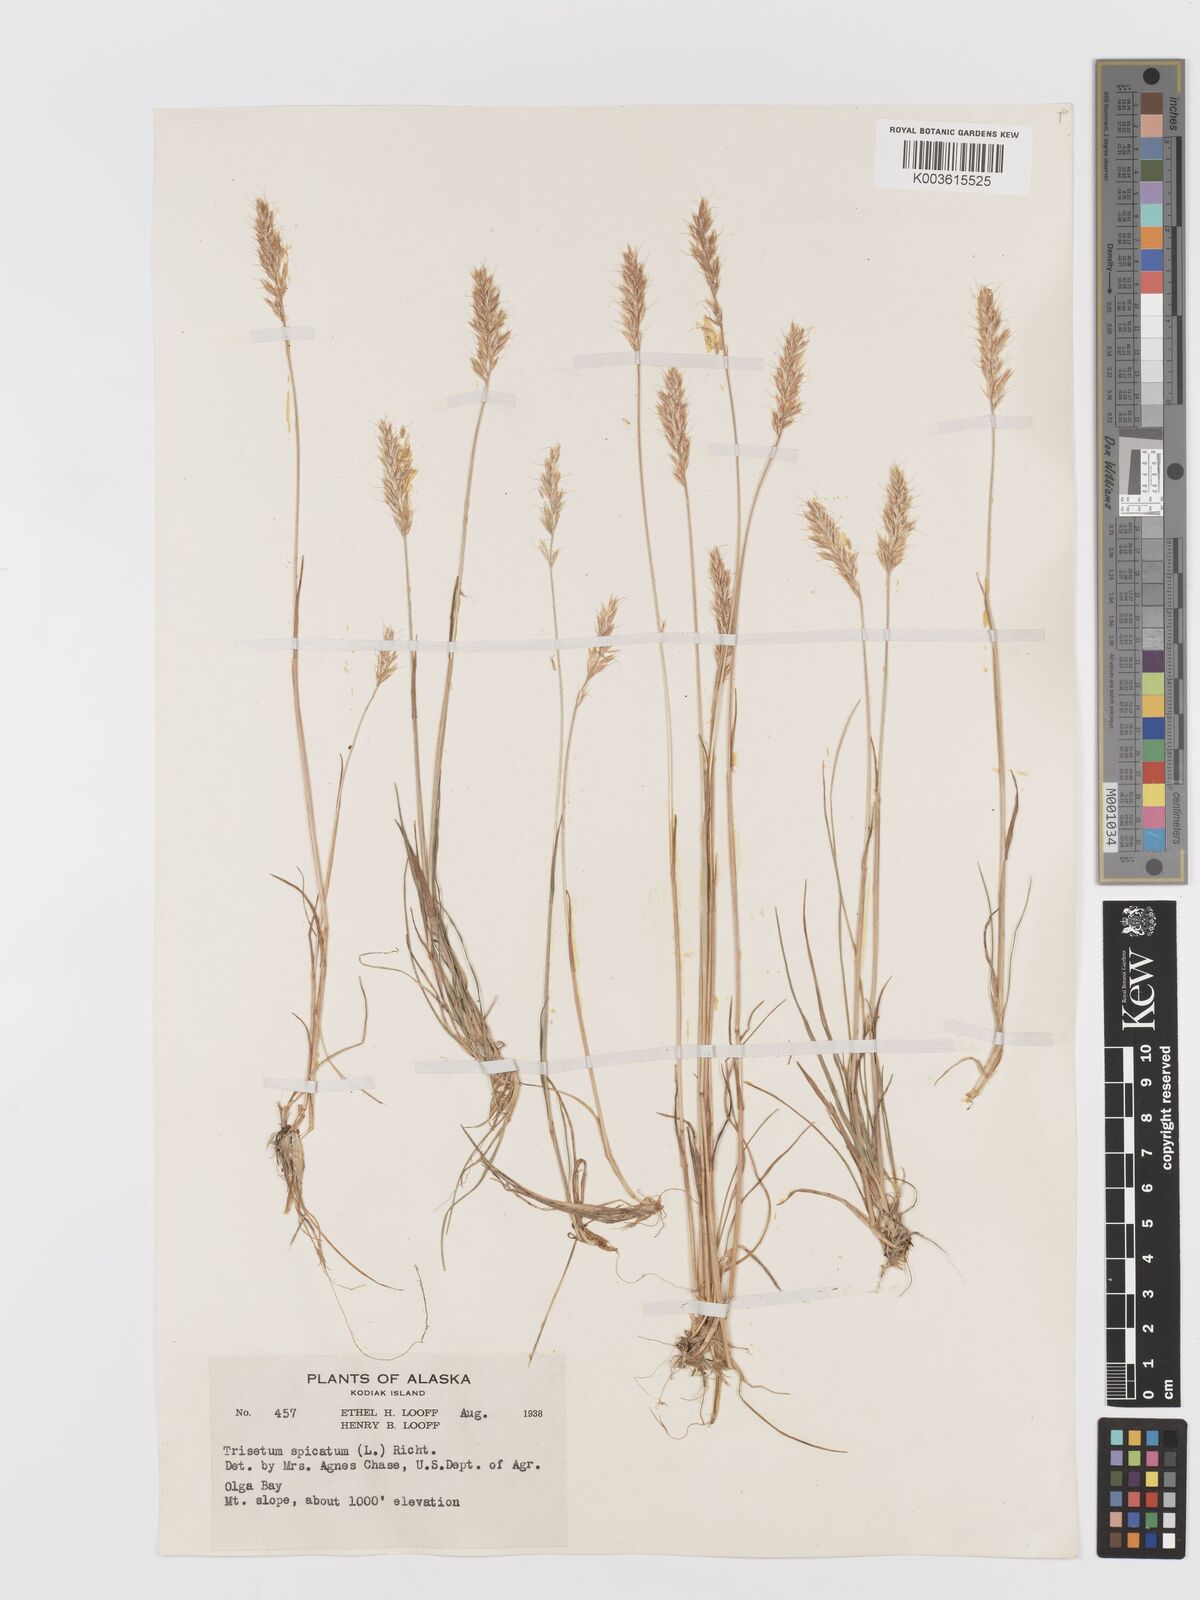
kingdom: Plantae
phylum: Tracheophyta
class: Liliopsida
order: Poales
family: Poaceae
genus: Koeleria
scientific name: Koeleria spicata
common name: Mountain trisetum
